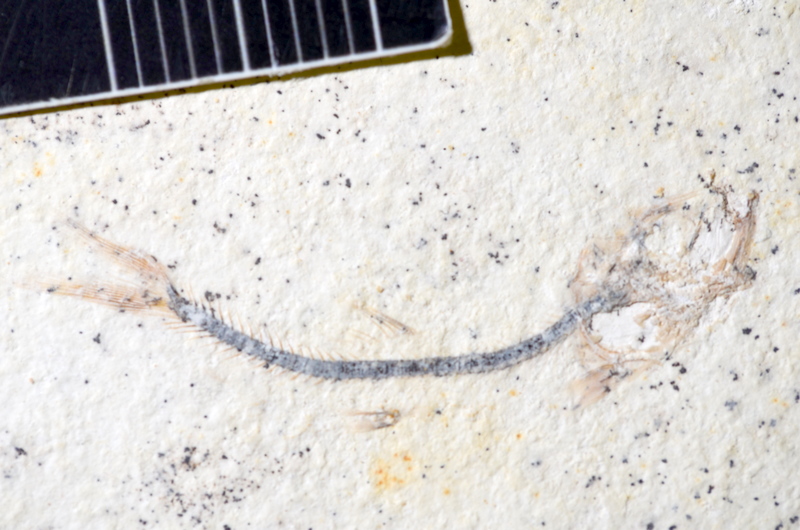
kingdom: Animalia
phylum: Chordata
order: Salmoniformes
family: Orthogonikleithridae
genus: Orthogonikleithrus
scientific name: Orthogonikleithrus hoelli
